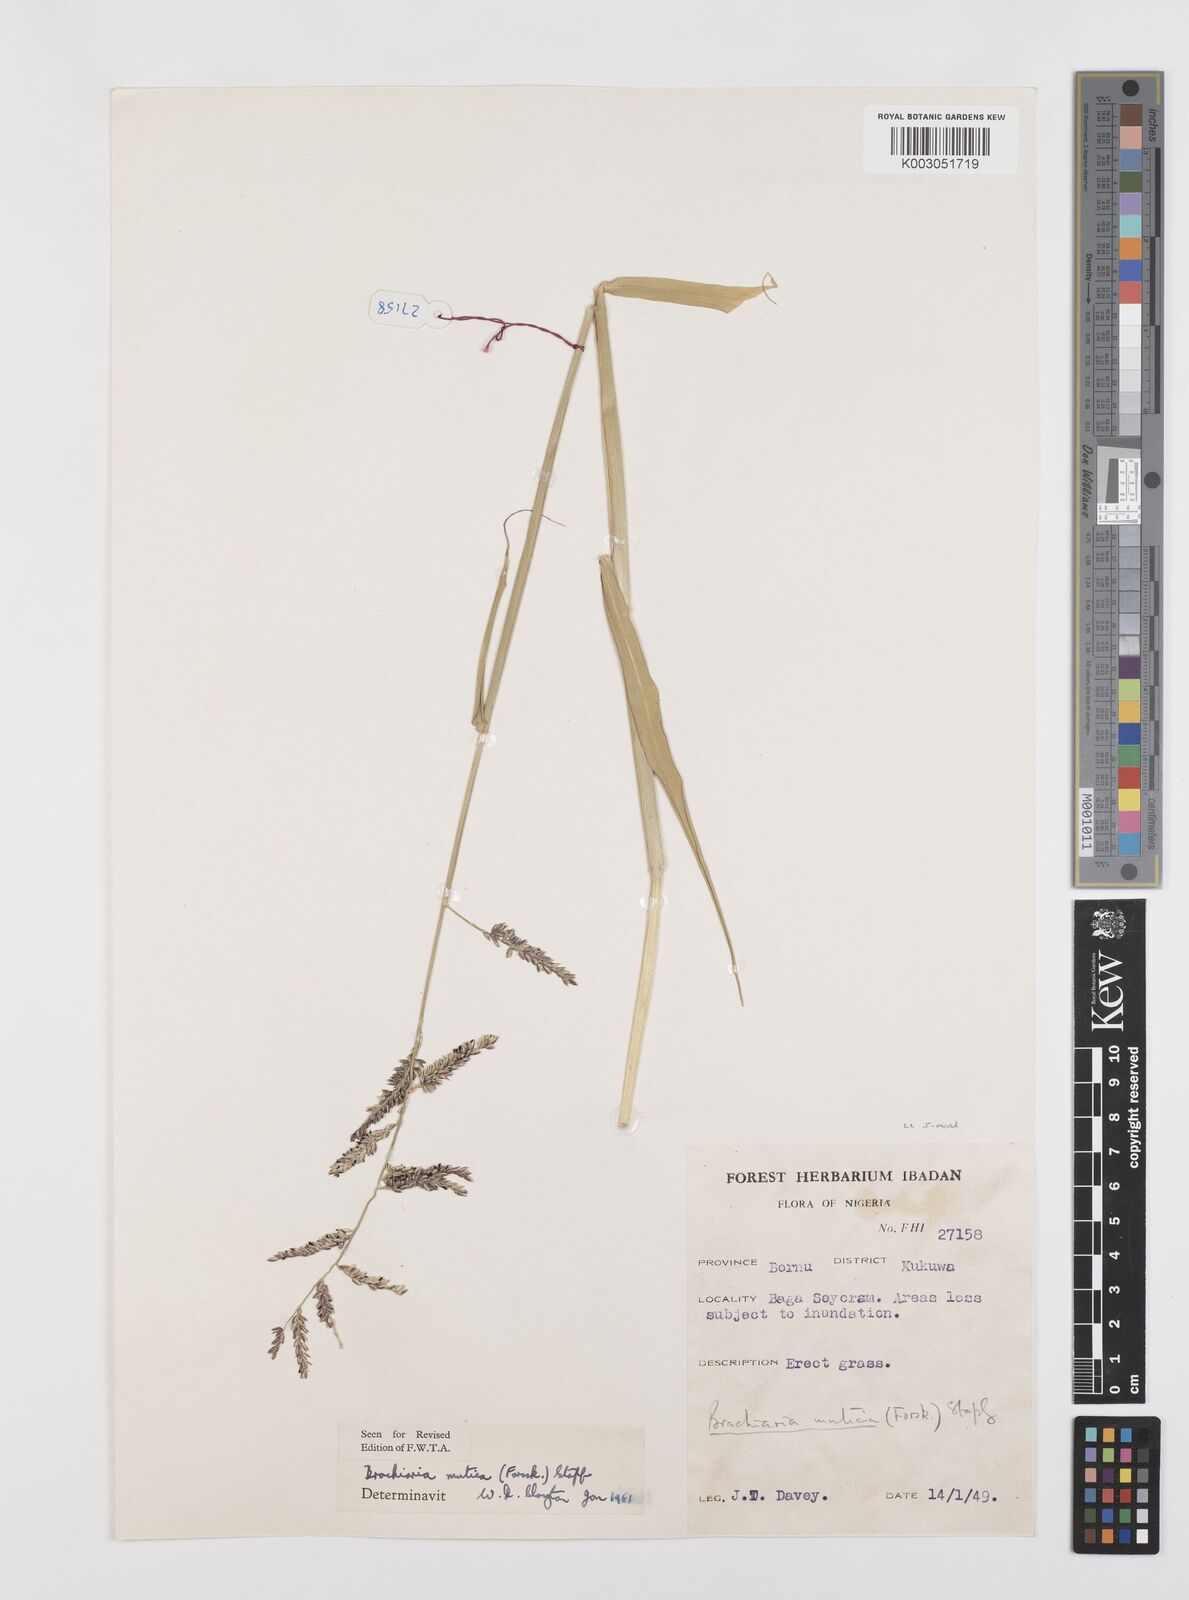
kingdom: Plantae
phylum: Tracheophyta
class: Liliopsida
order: Poales
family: Poaceae
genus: Urochloa
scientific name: Urochloa mutica
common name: Para grass
